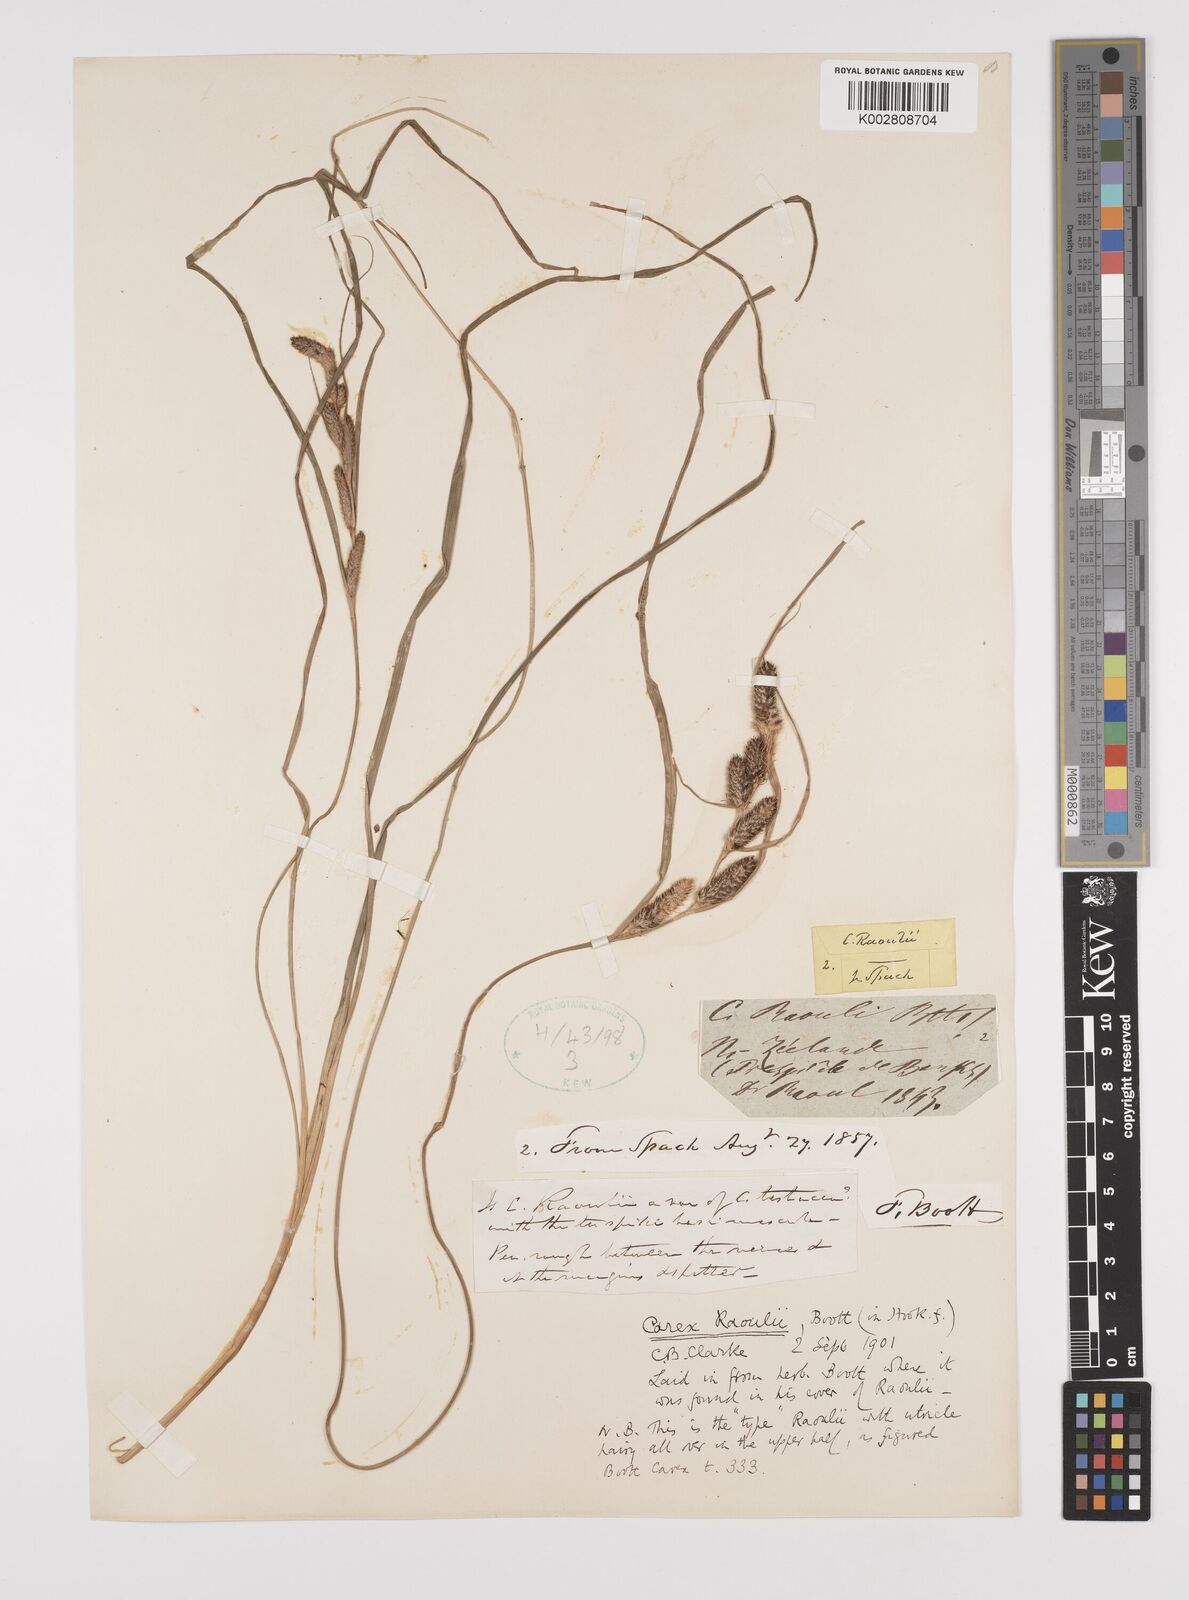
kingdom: Plantae
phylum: Tracheophyta
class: Liliopsida
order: Poales
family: Cyperaceae
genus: Carex
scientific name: Carex raoulii
